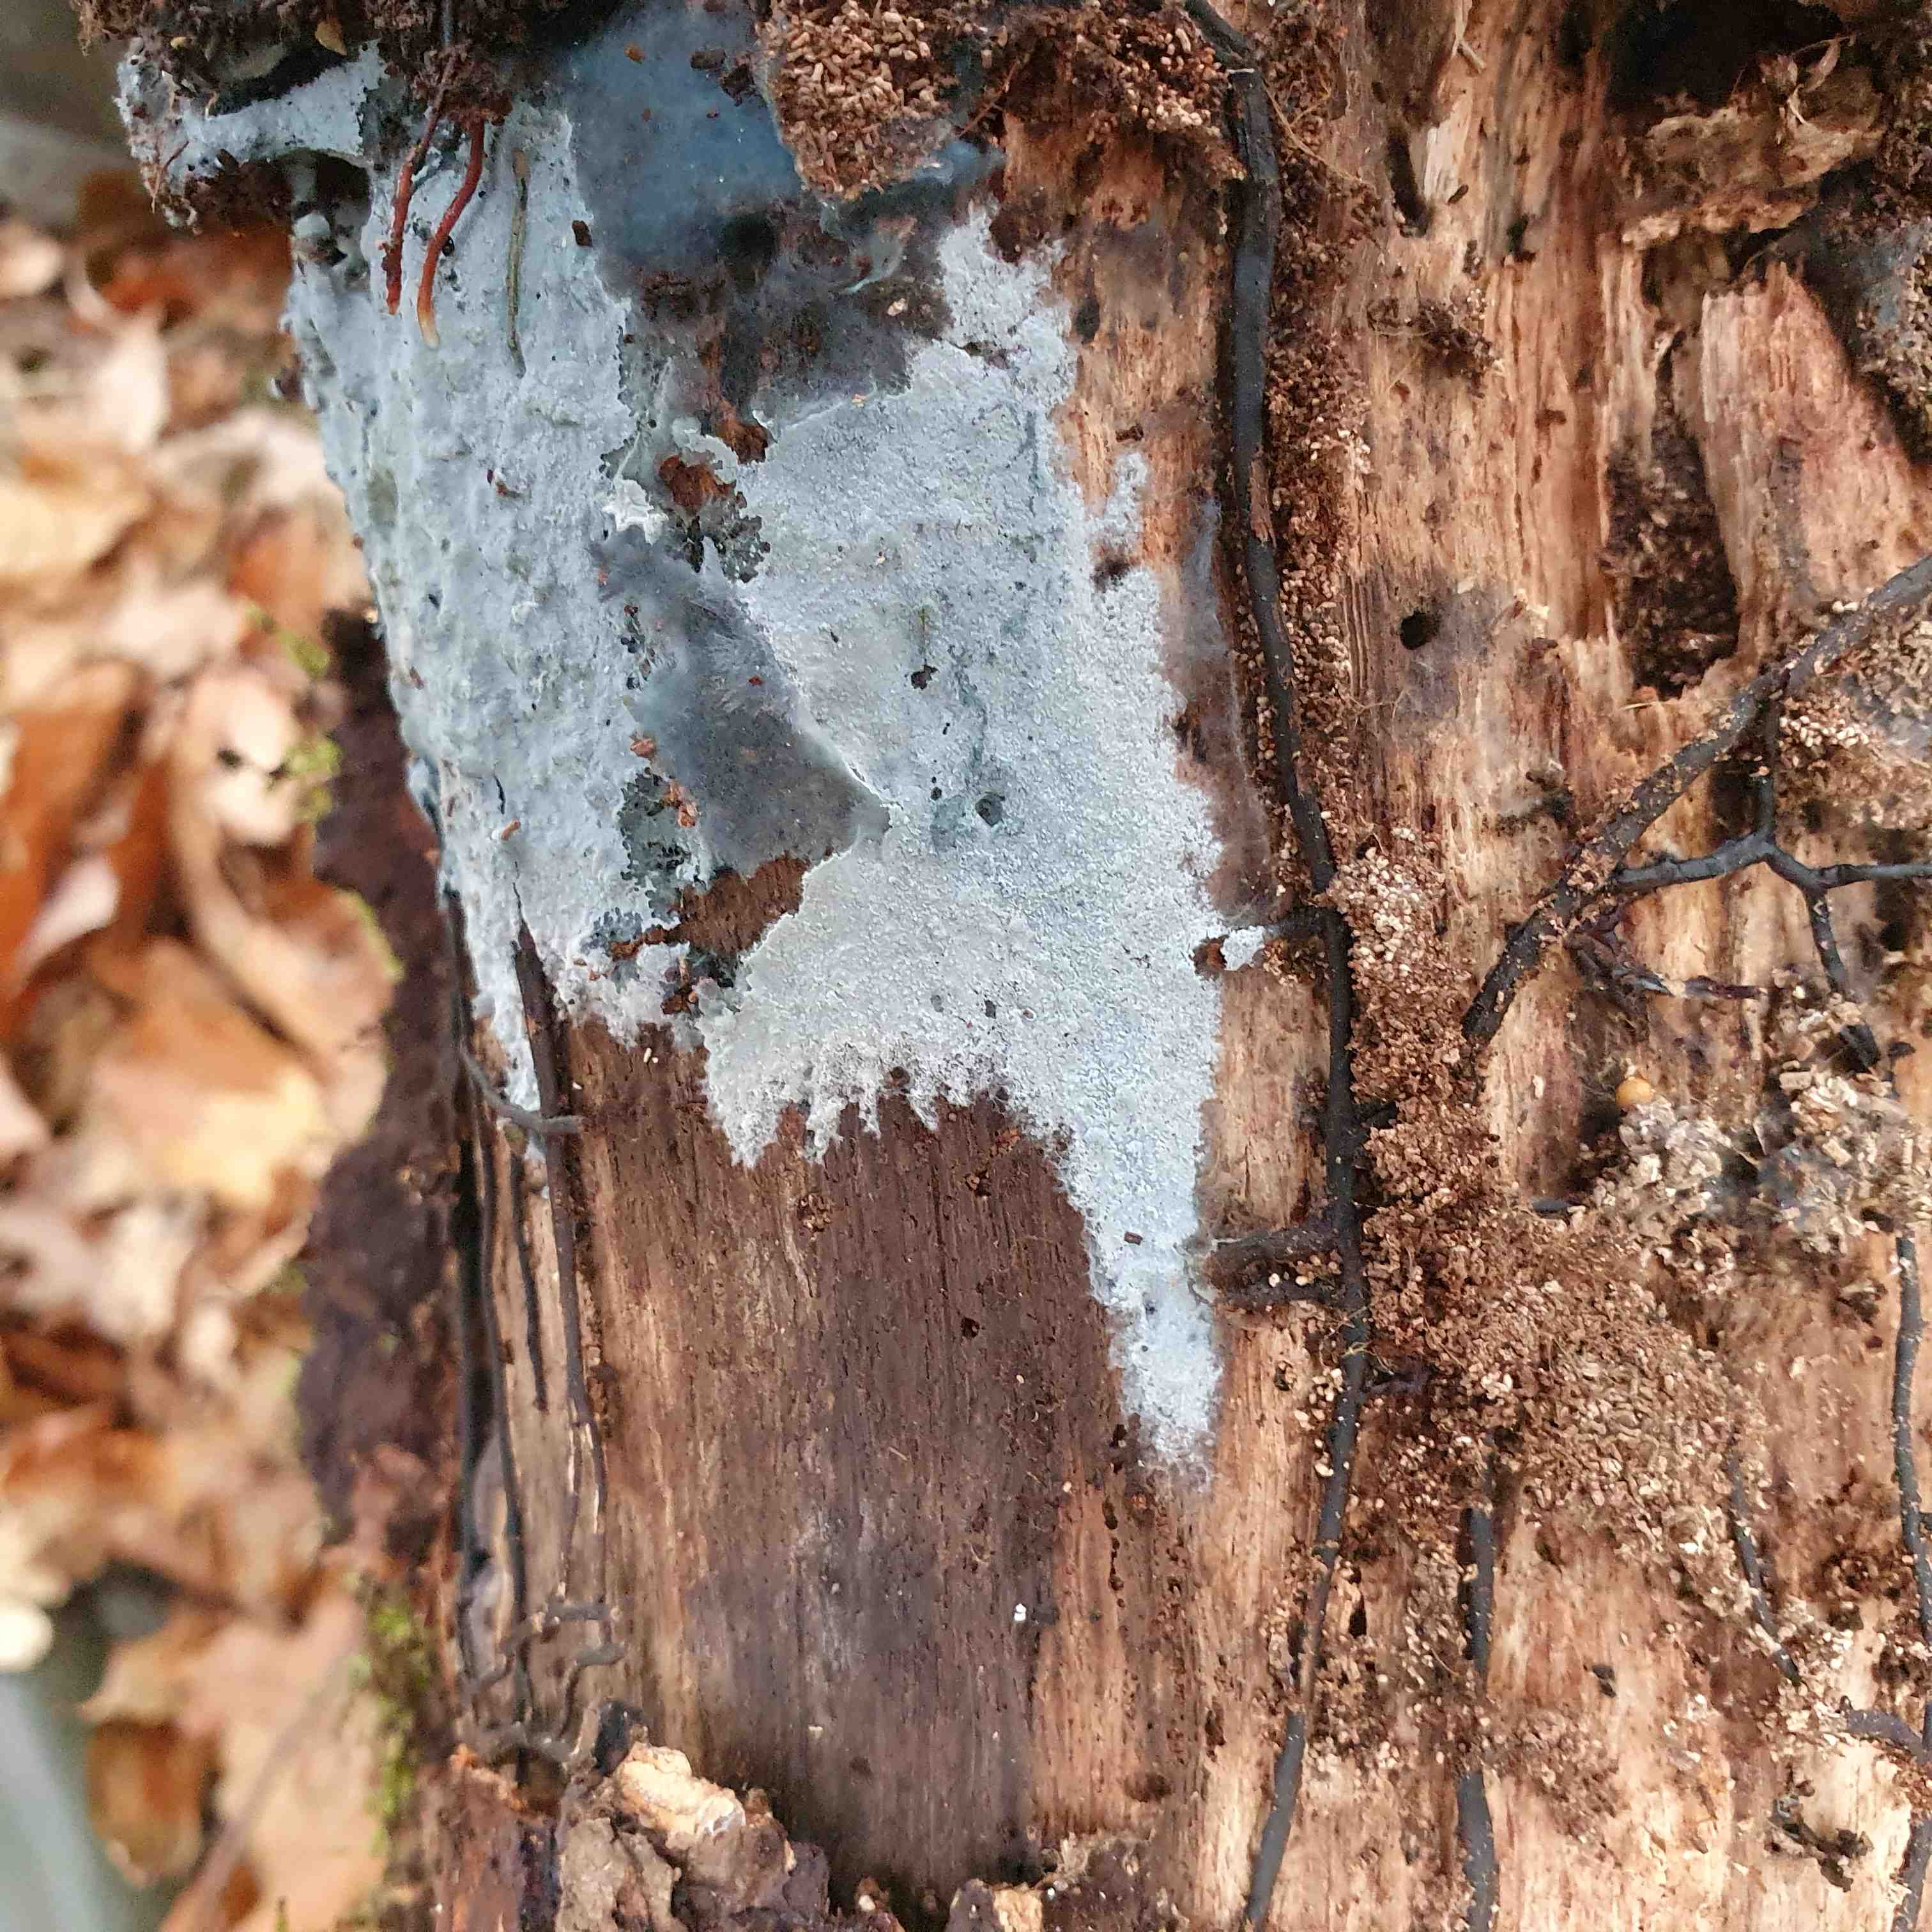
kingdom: Fungi
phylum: Basidiomycota
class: Agaricomycetes
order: Atheliales
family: Atheliaceae
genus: Byssocorticium
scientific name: Byssocorticium atrovirens
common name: blå førnehinde
